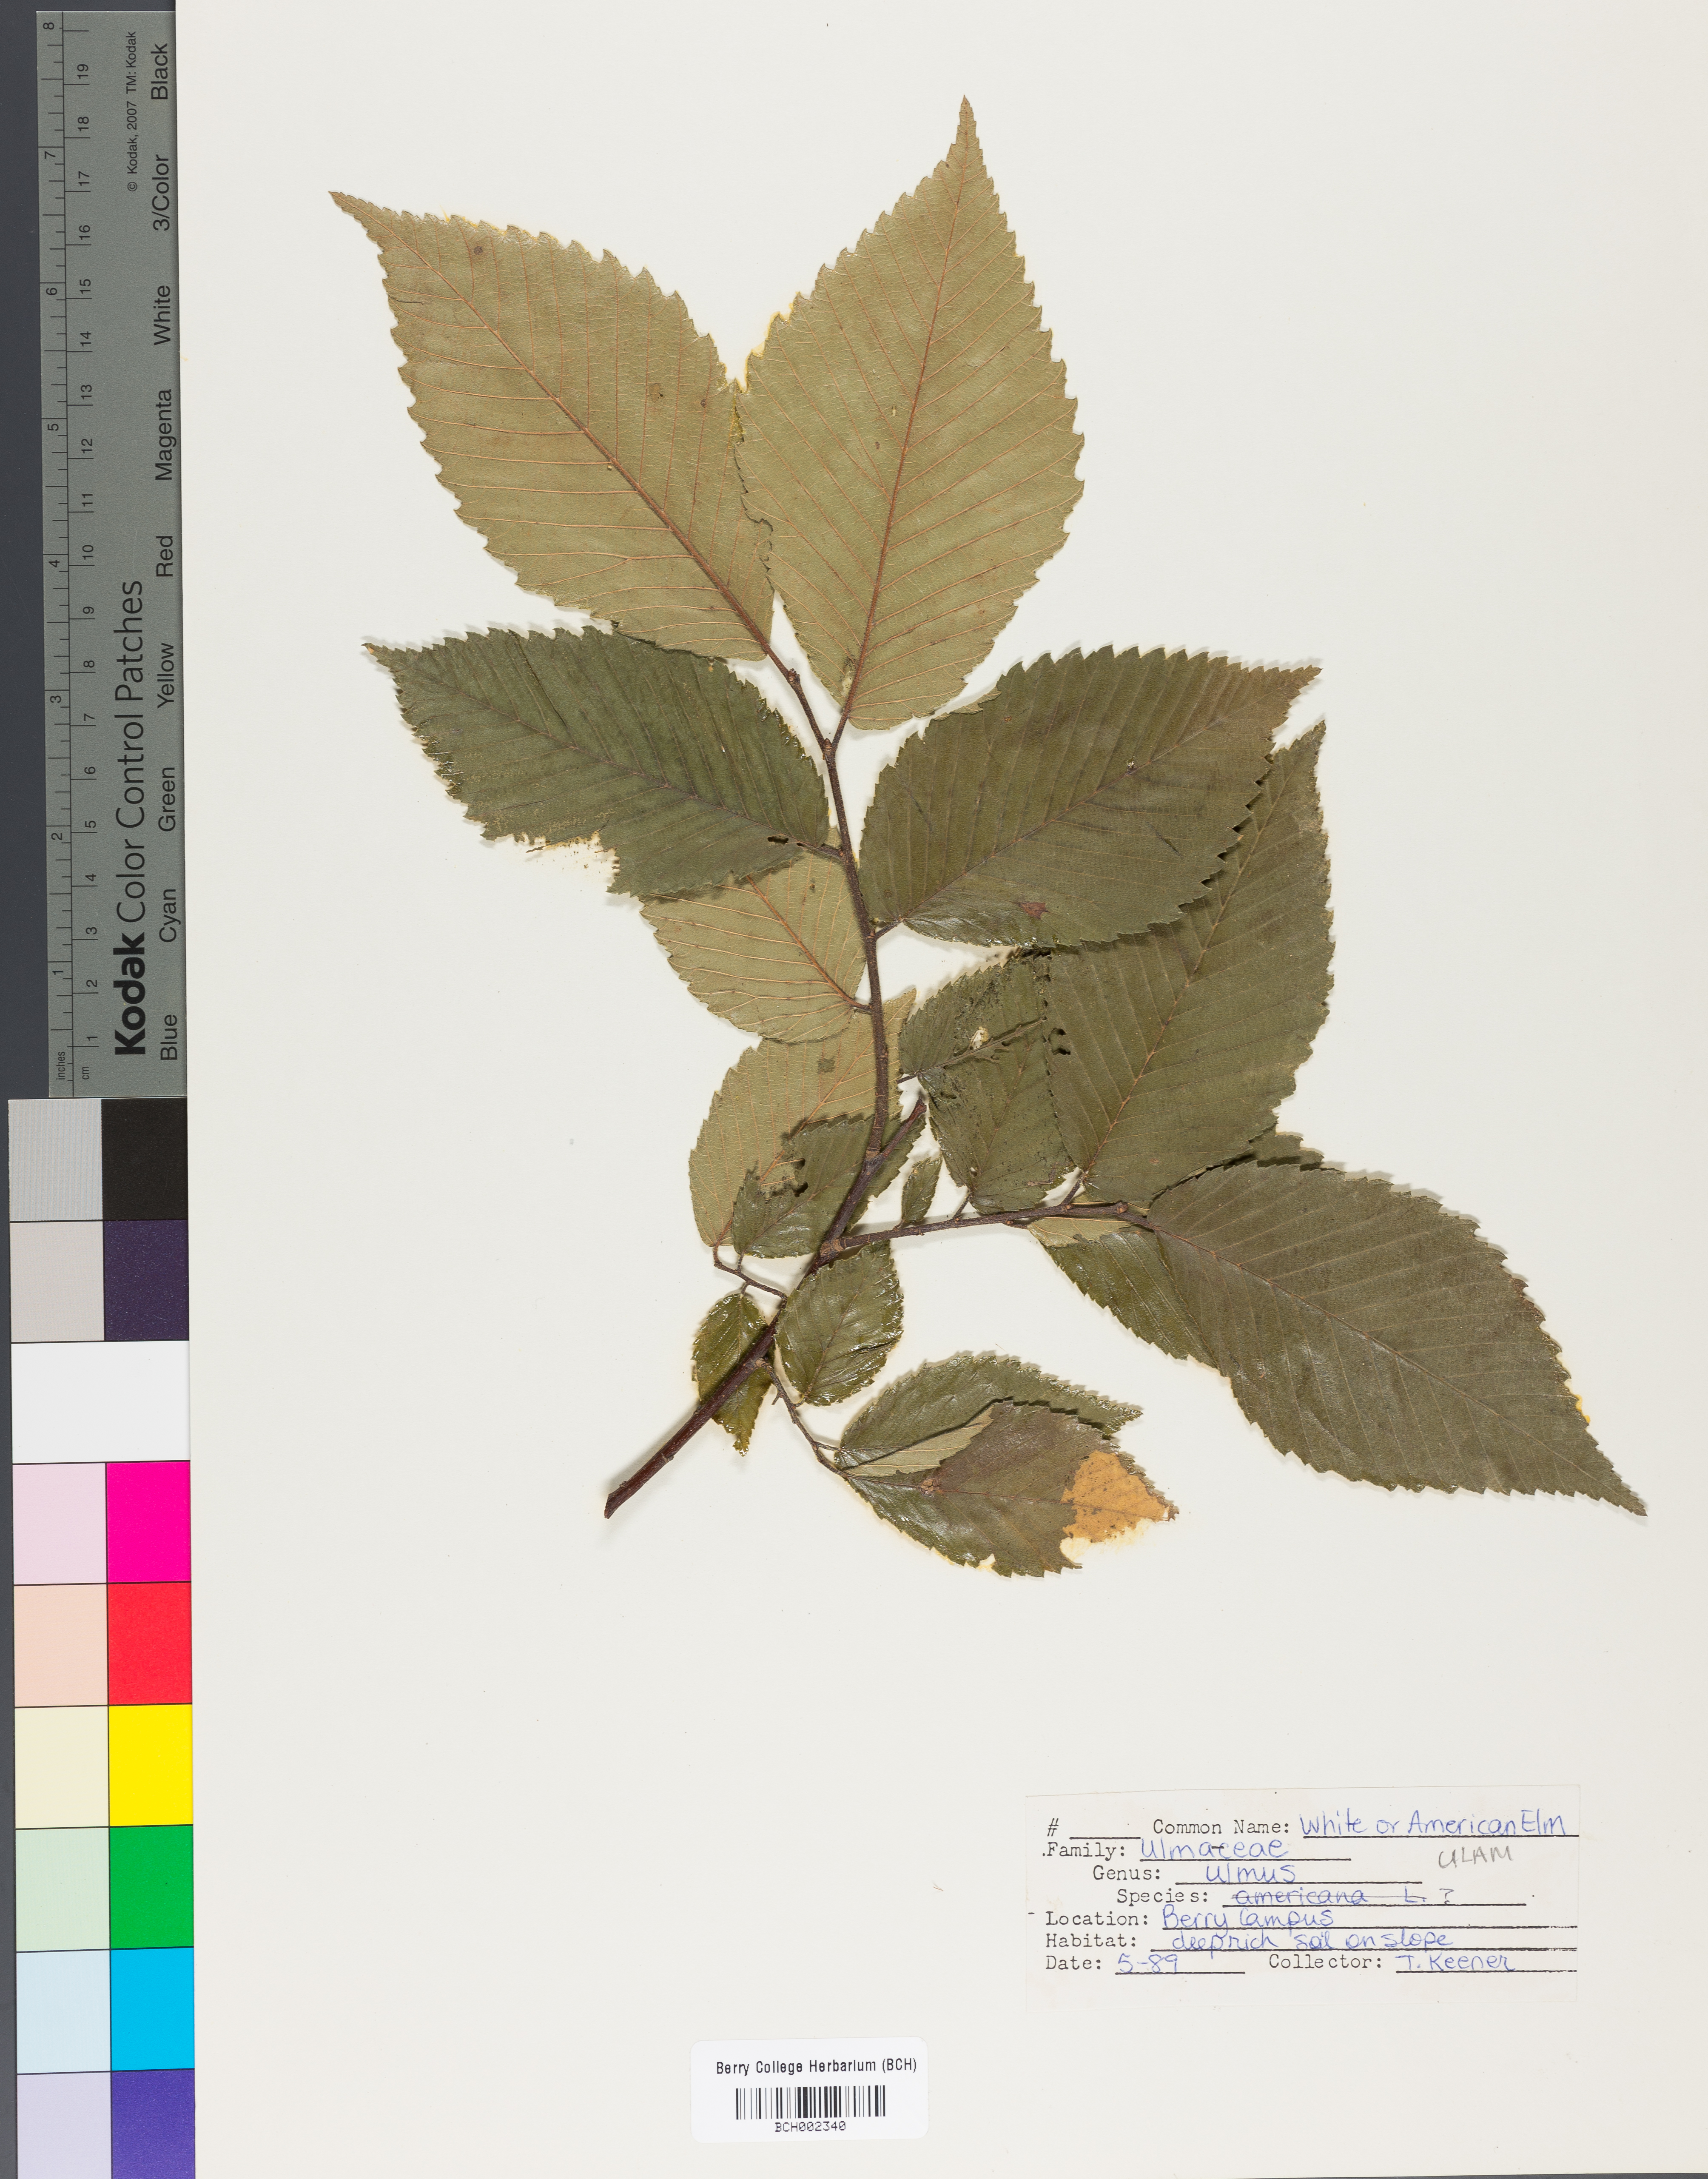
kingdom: Plantae
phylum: Tracheophyta
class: Magnoliopsida
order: Rosales
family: Ulmaceae
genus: Ulmus
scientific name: Ulmus americana
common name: American elm
